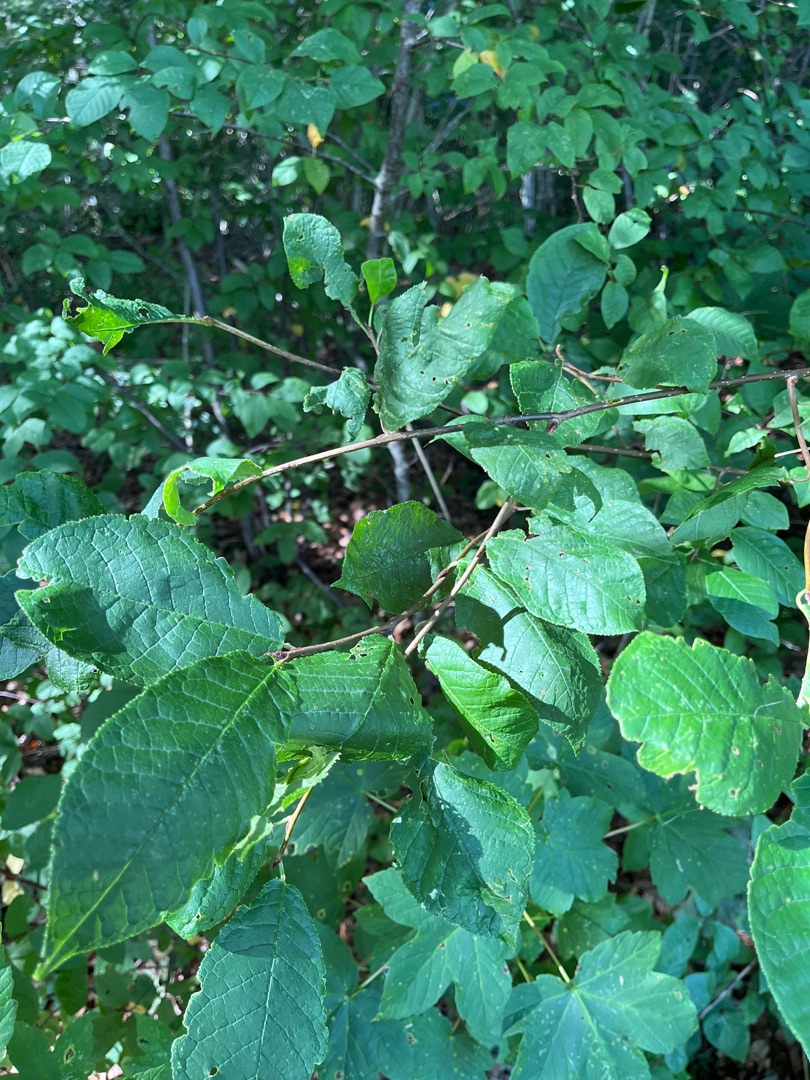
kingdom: Plantae
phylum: Tracheophyta
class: Magnoliopsida
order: Rosales
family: Rosaceae
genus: Prunus
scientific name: Prunus padus
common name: Almindelig hæg
